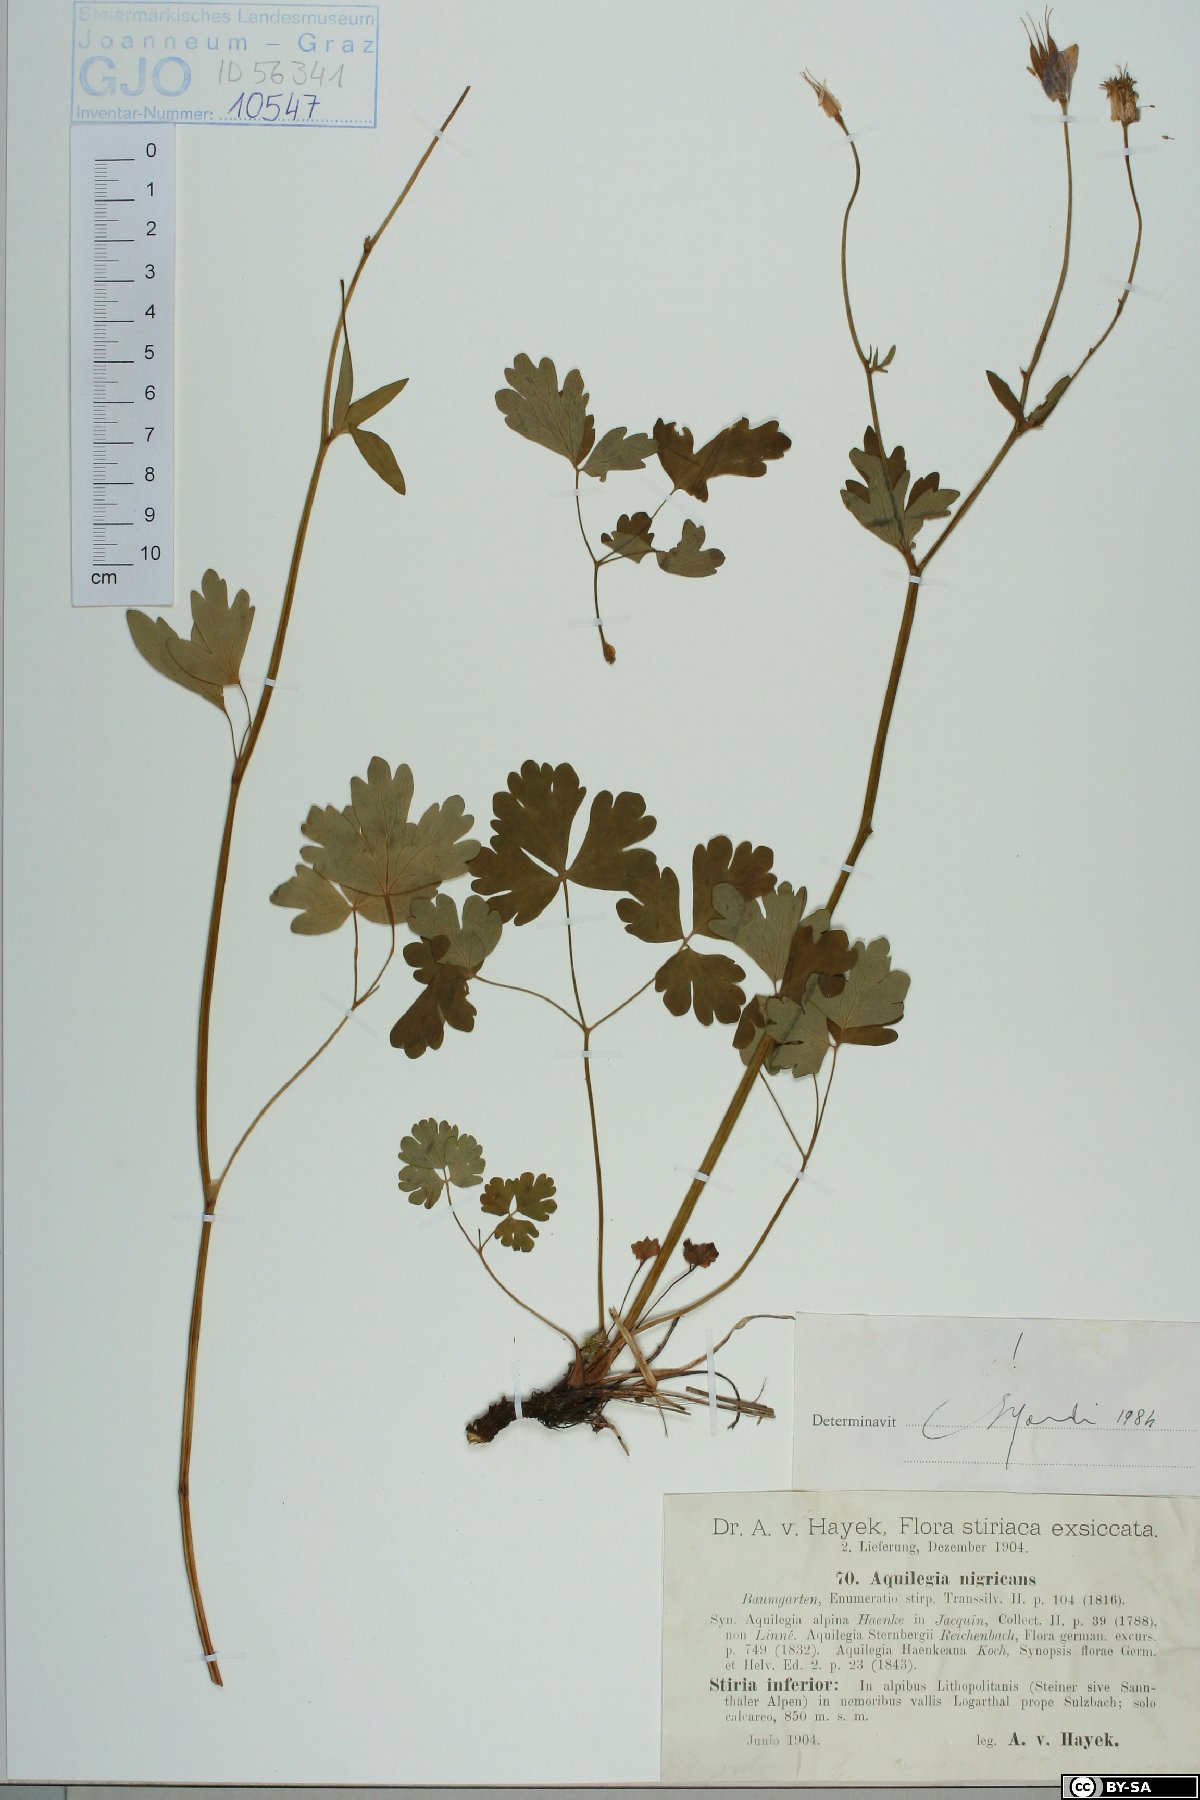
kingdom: Plantae
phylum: Tracheophyta
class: Magnoliopsida
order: Ranunculales
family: Ranunculaceae
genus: Aquilegia
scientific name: Aquilegia nigricans
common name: Bulgarian columbine
